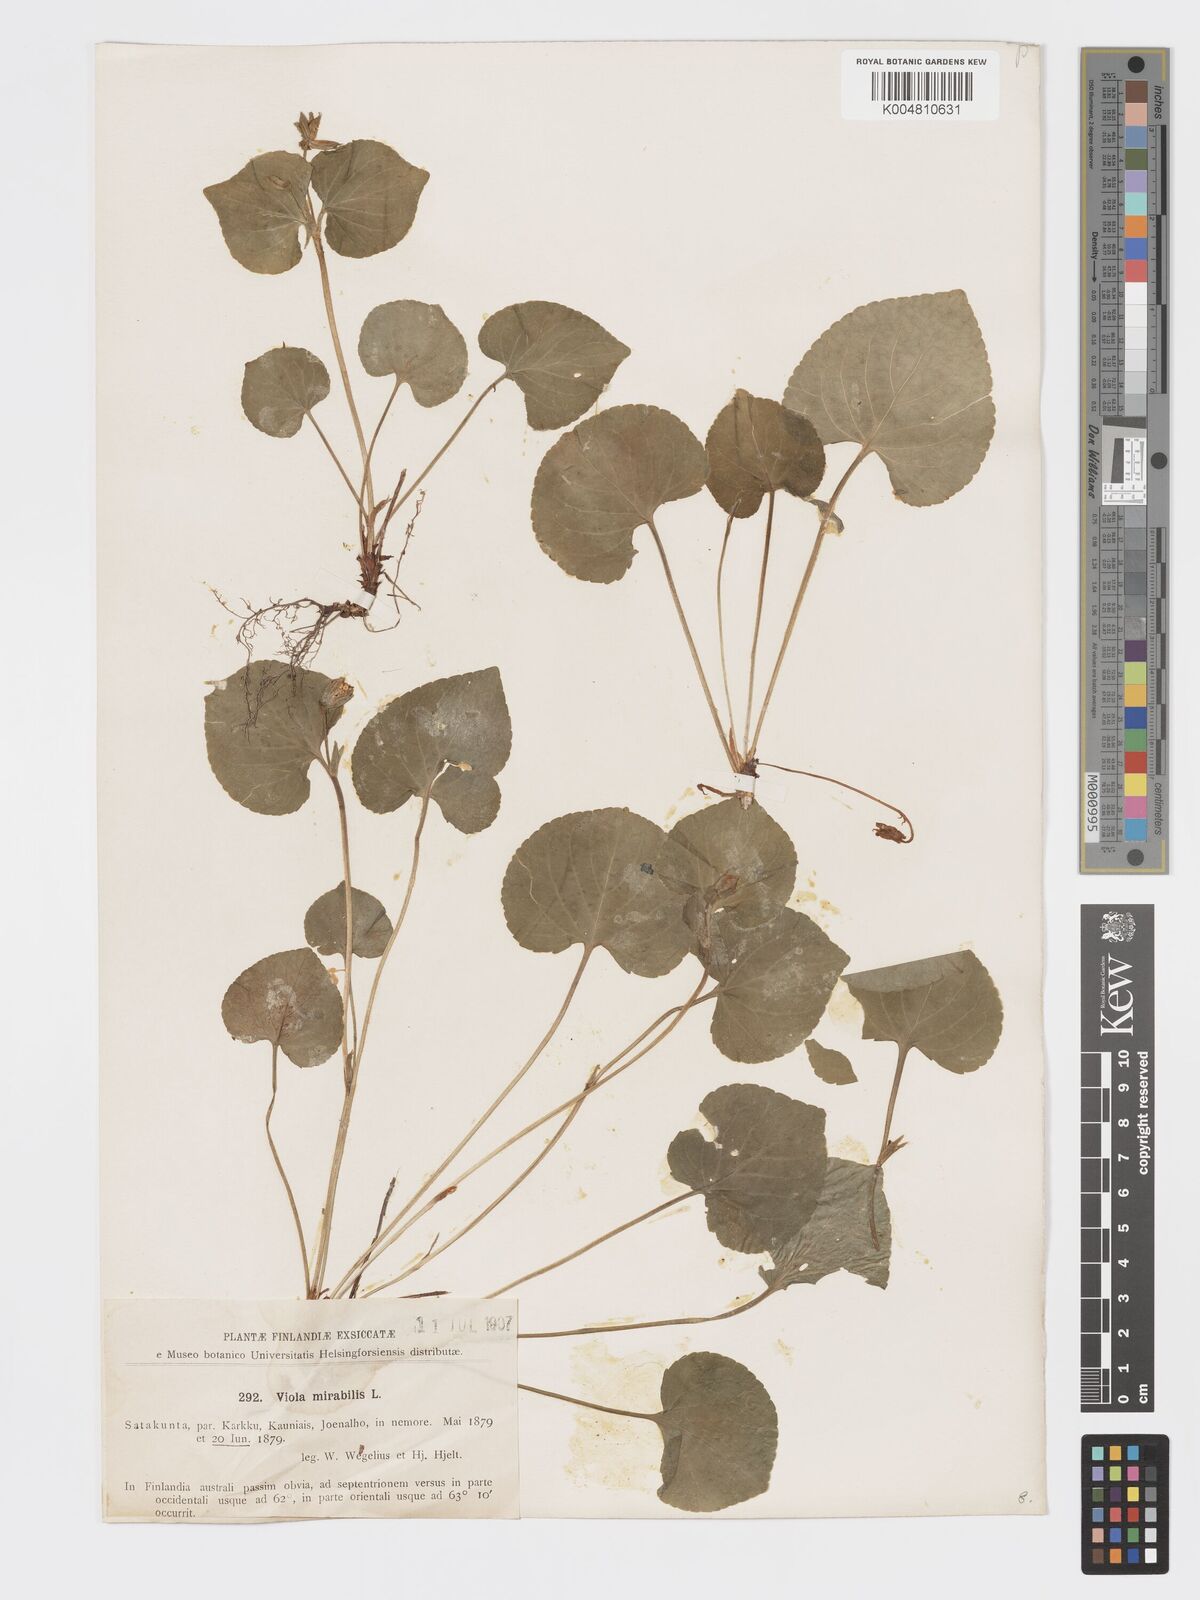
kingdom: Plantae
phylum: Tracheophyta
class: Magnoliopsida
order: Malpighiales
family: Violaceae
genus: Viola
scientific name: Viola mirabilis
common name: Wonder violet
